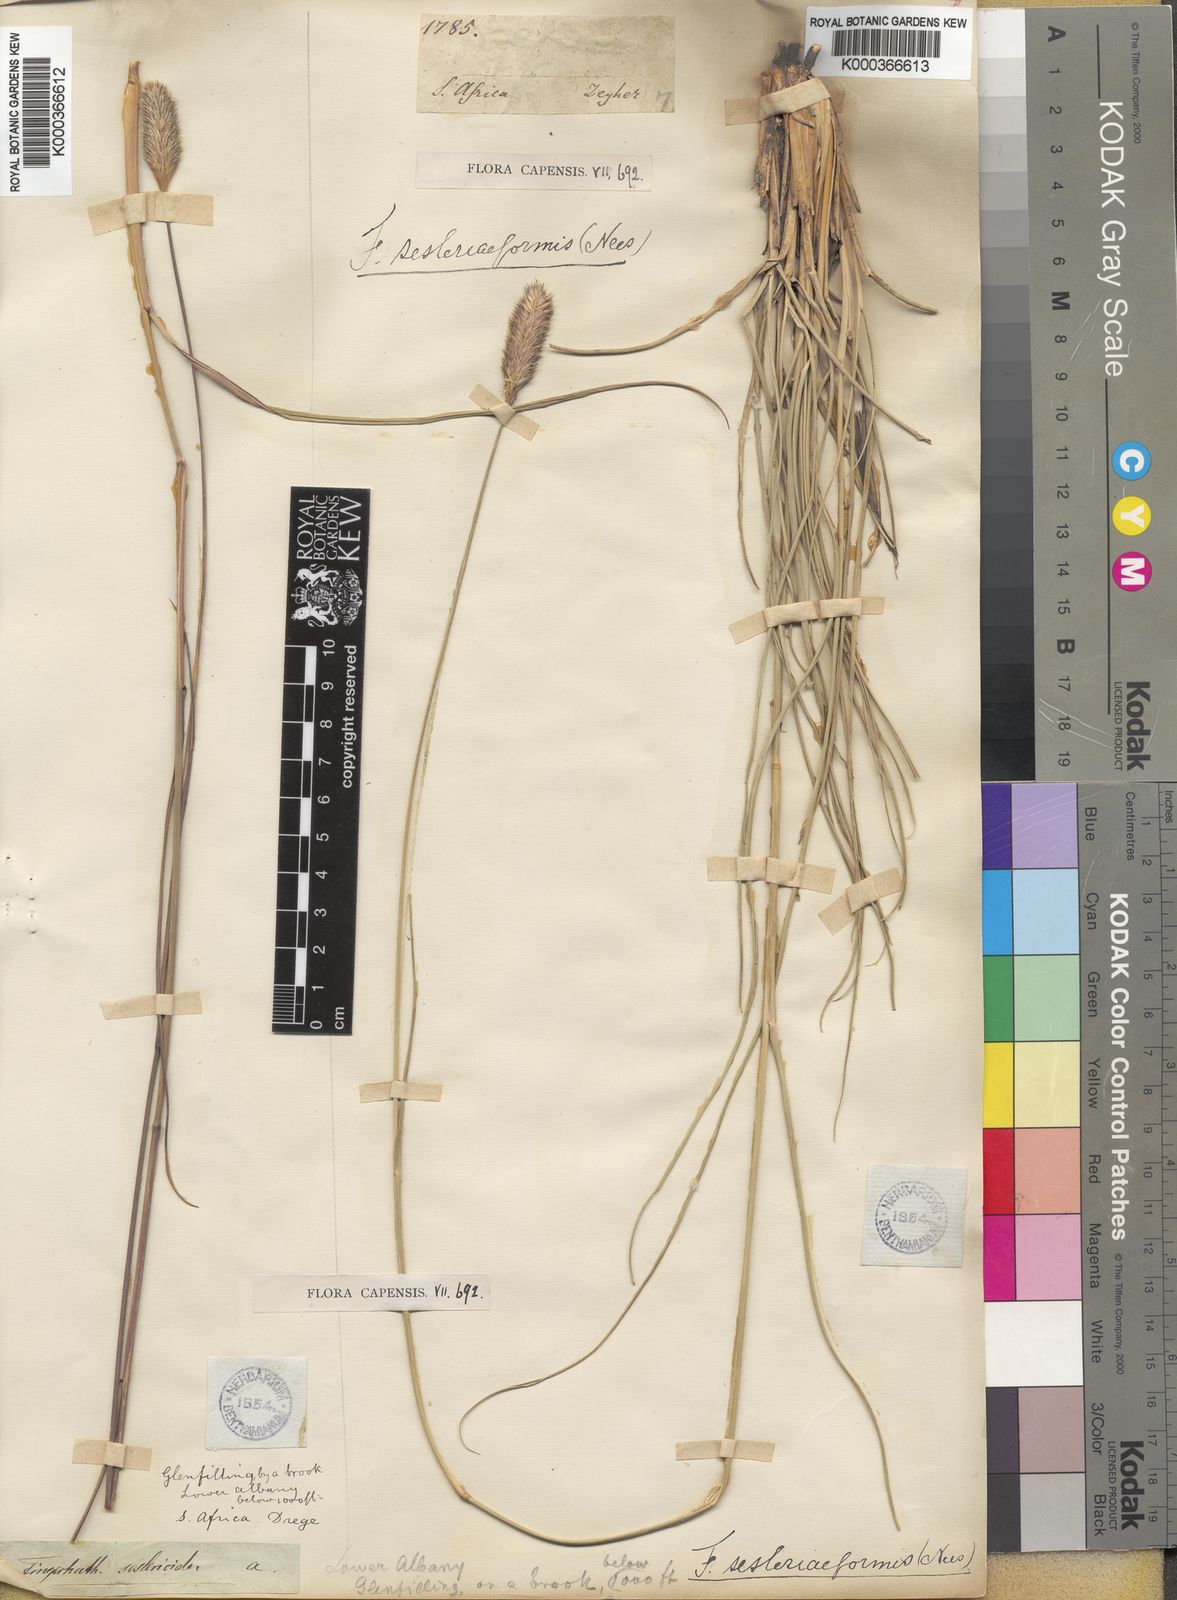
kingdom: Plantae
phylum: Tracheophyta
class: Liliopsida
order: Poales
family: Poaceae
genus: Fingerhuthia
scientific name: Fingerhuthia sesleriiformis
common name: Thimble grass
